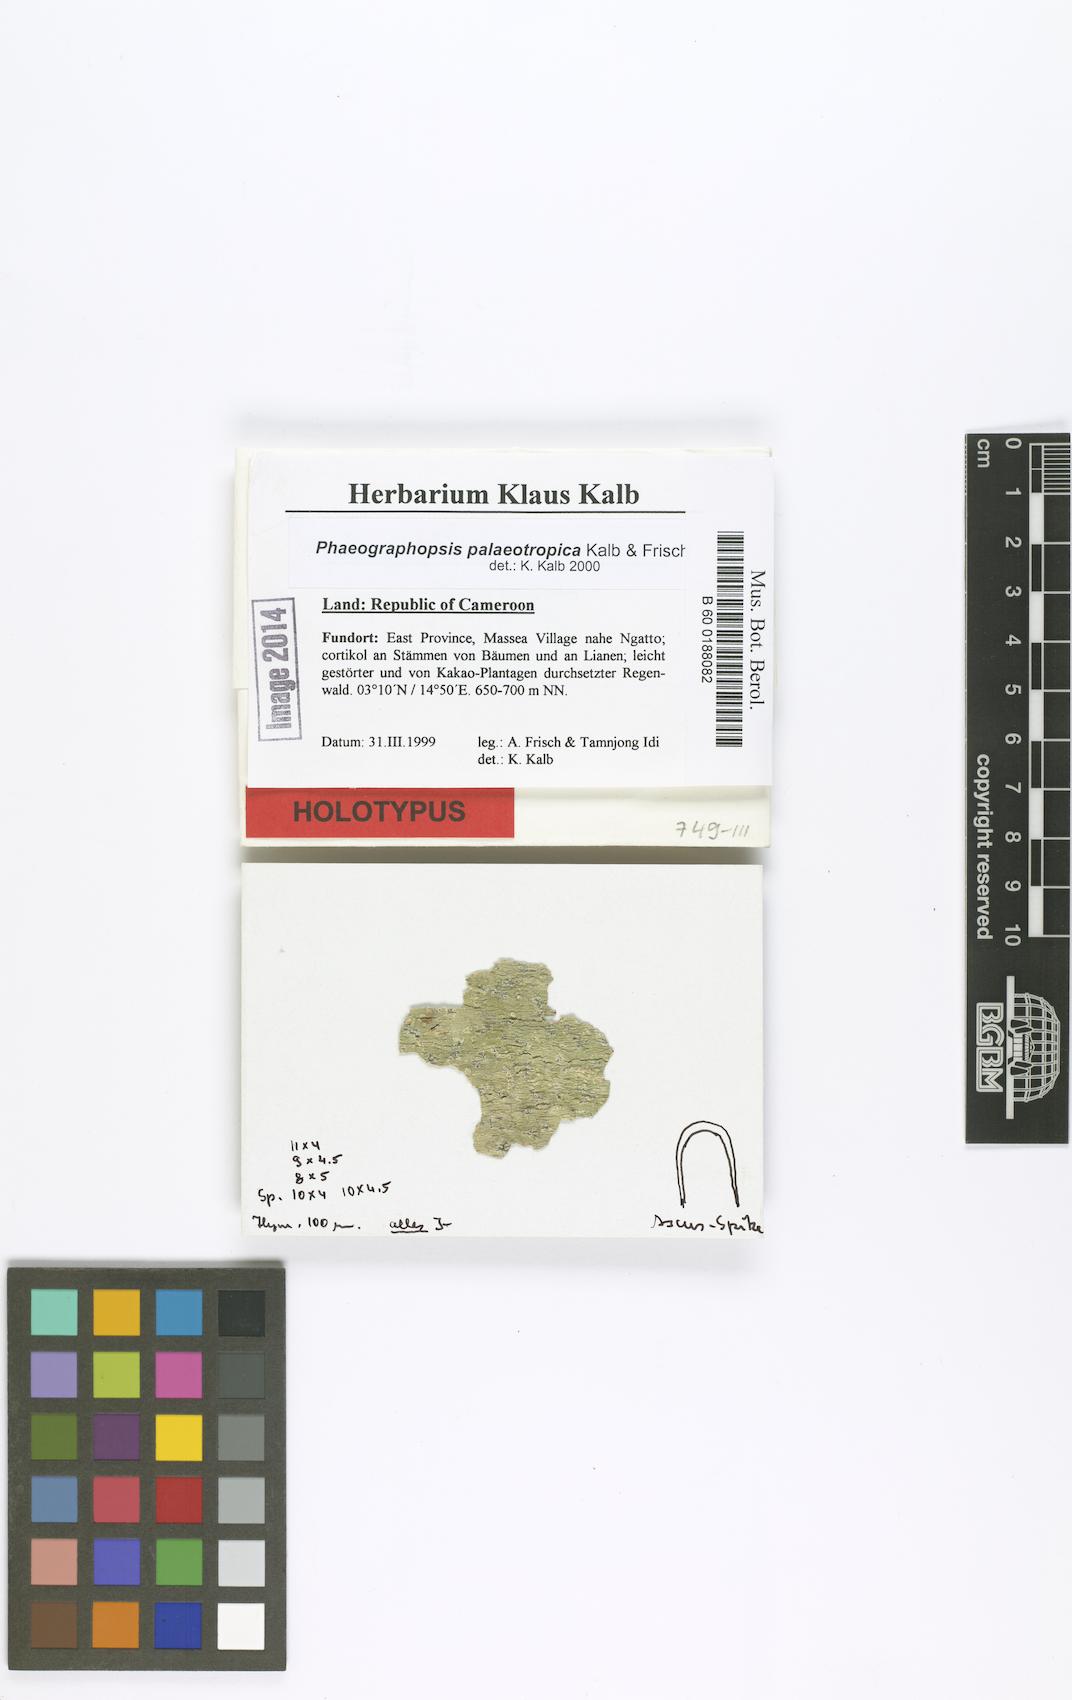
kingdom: Fungi
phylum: Ascomycota
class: Lecanoromycetes
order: Ostropales
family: Graphidaceae
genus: Phaeographopsis
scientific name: Phaeographopsis palaeotropica
